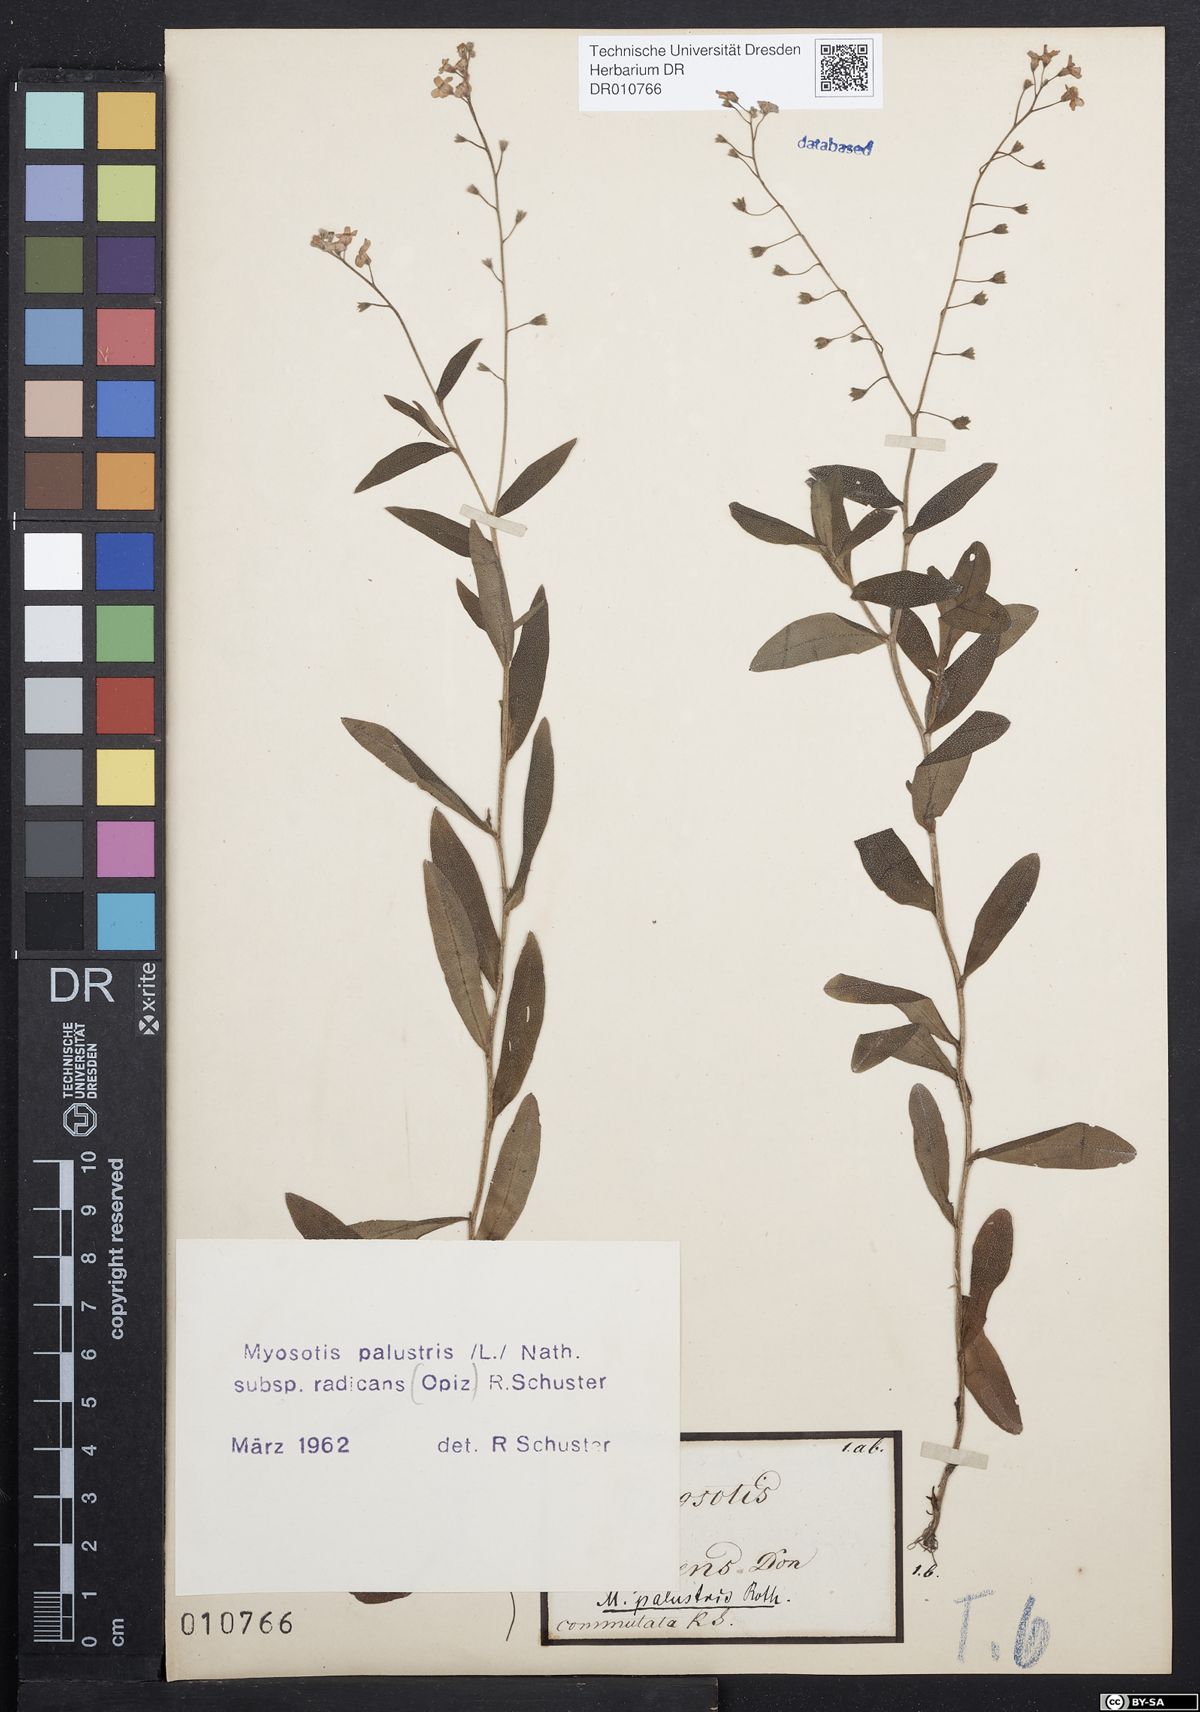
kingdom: Plantae
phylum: Tracheophyta
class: Magnoliopsida
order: Boraginales
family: Boraginaceae
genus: Myosotis
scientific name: Myosotis scorpioides
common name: Water forget-me-not
